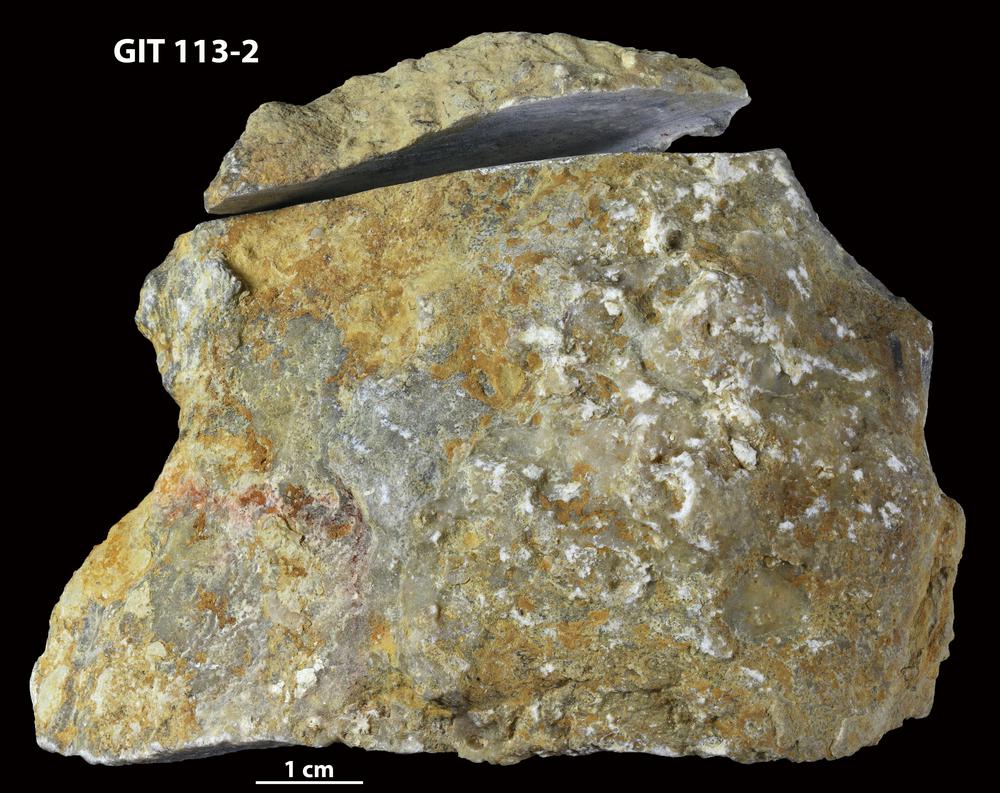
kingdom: Animalia
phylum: Porifera
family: Stromatoceriidae
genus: Cystistroma
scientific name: Cystistroma Stromatocerium canadense
